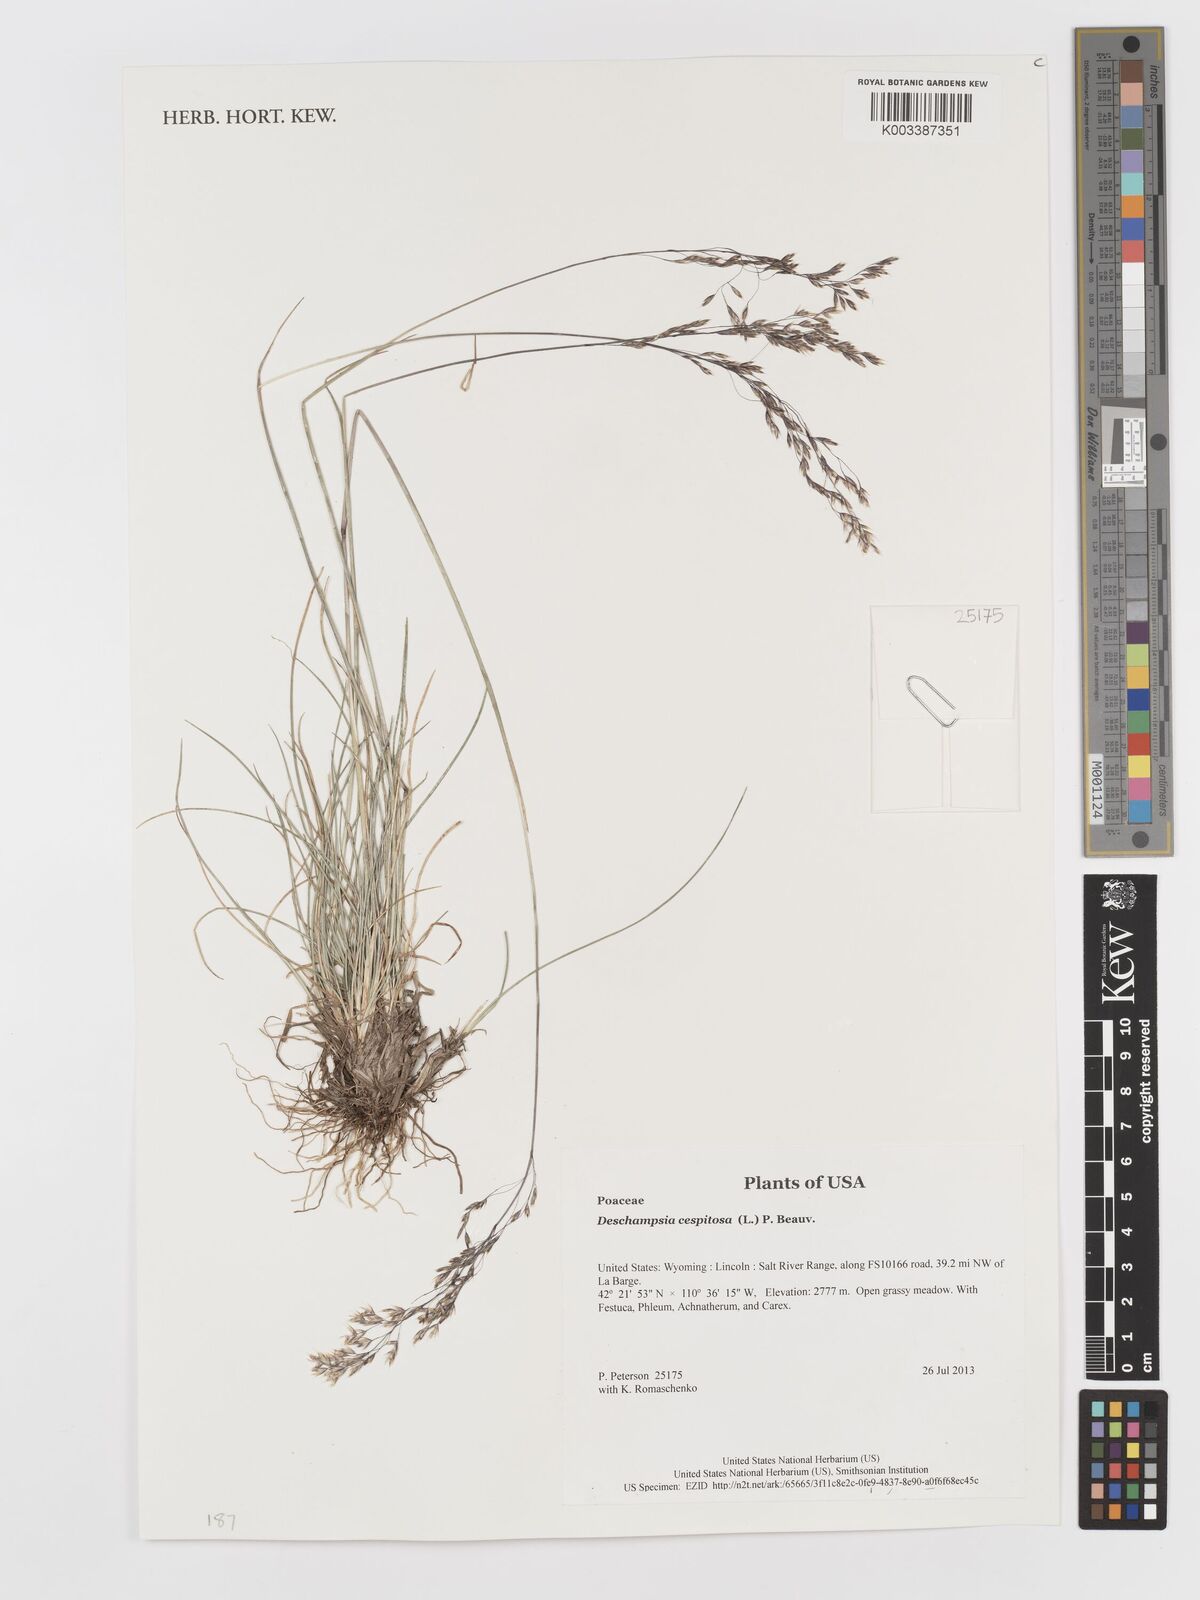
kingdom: Plantae
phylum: Tracheophyta
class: Liliopsida
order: Poales
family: Poaceae
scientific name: Poaceae
